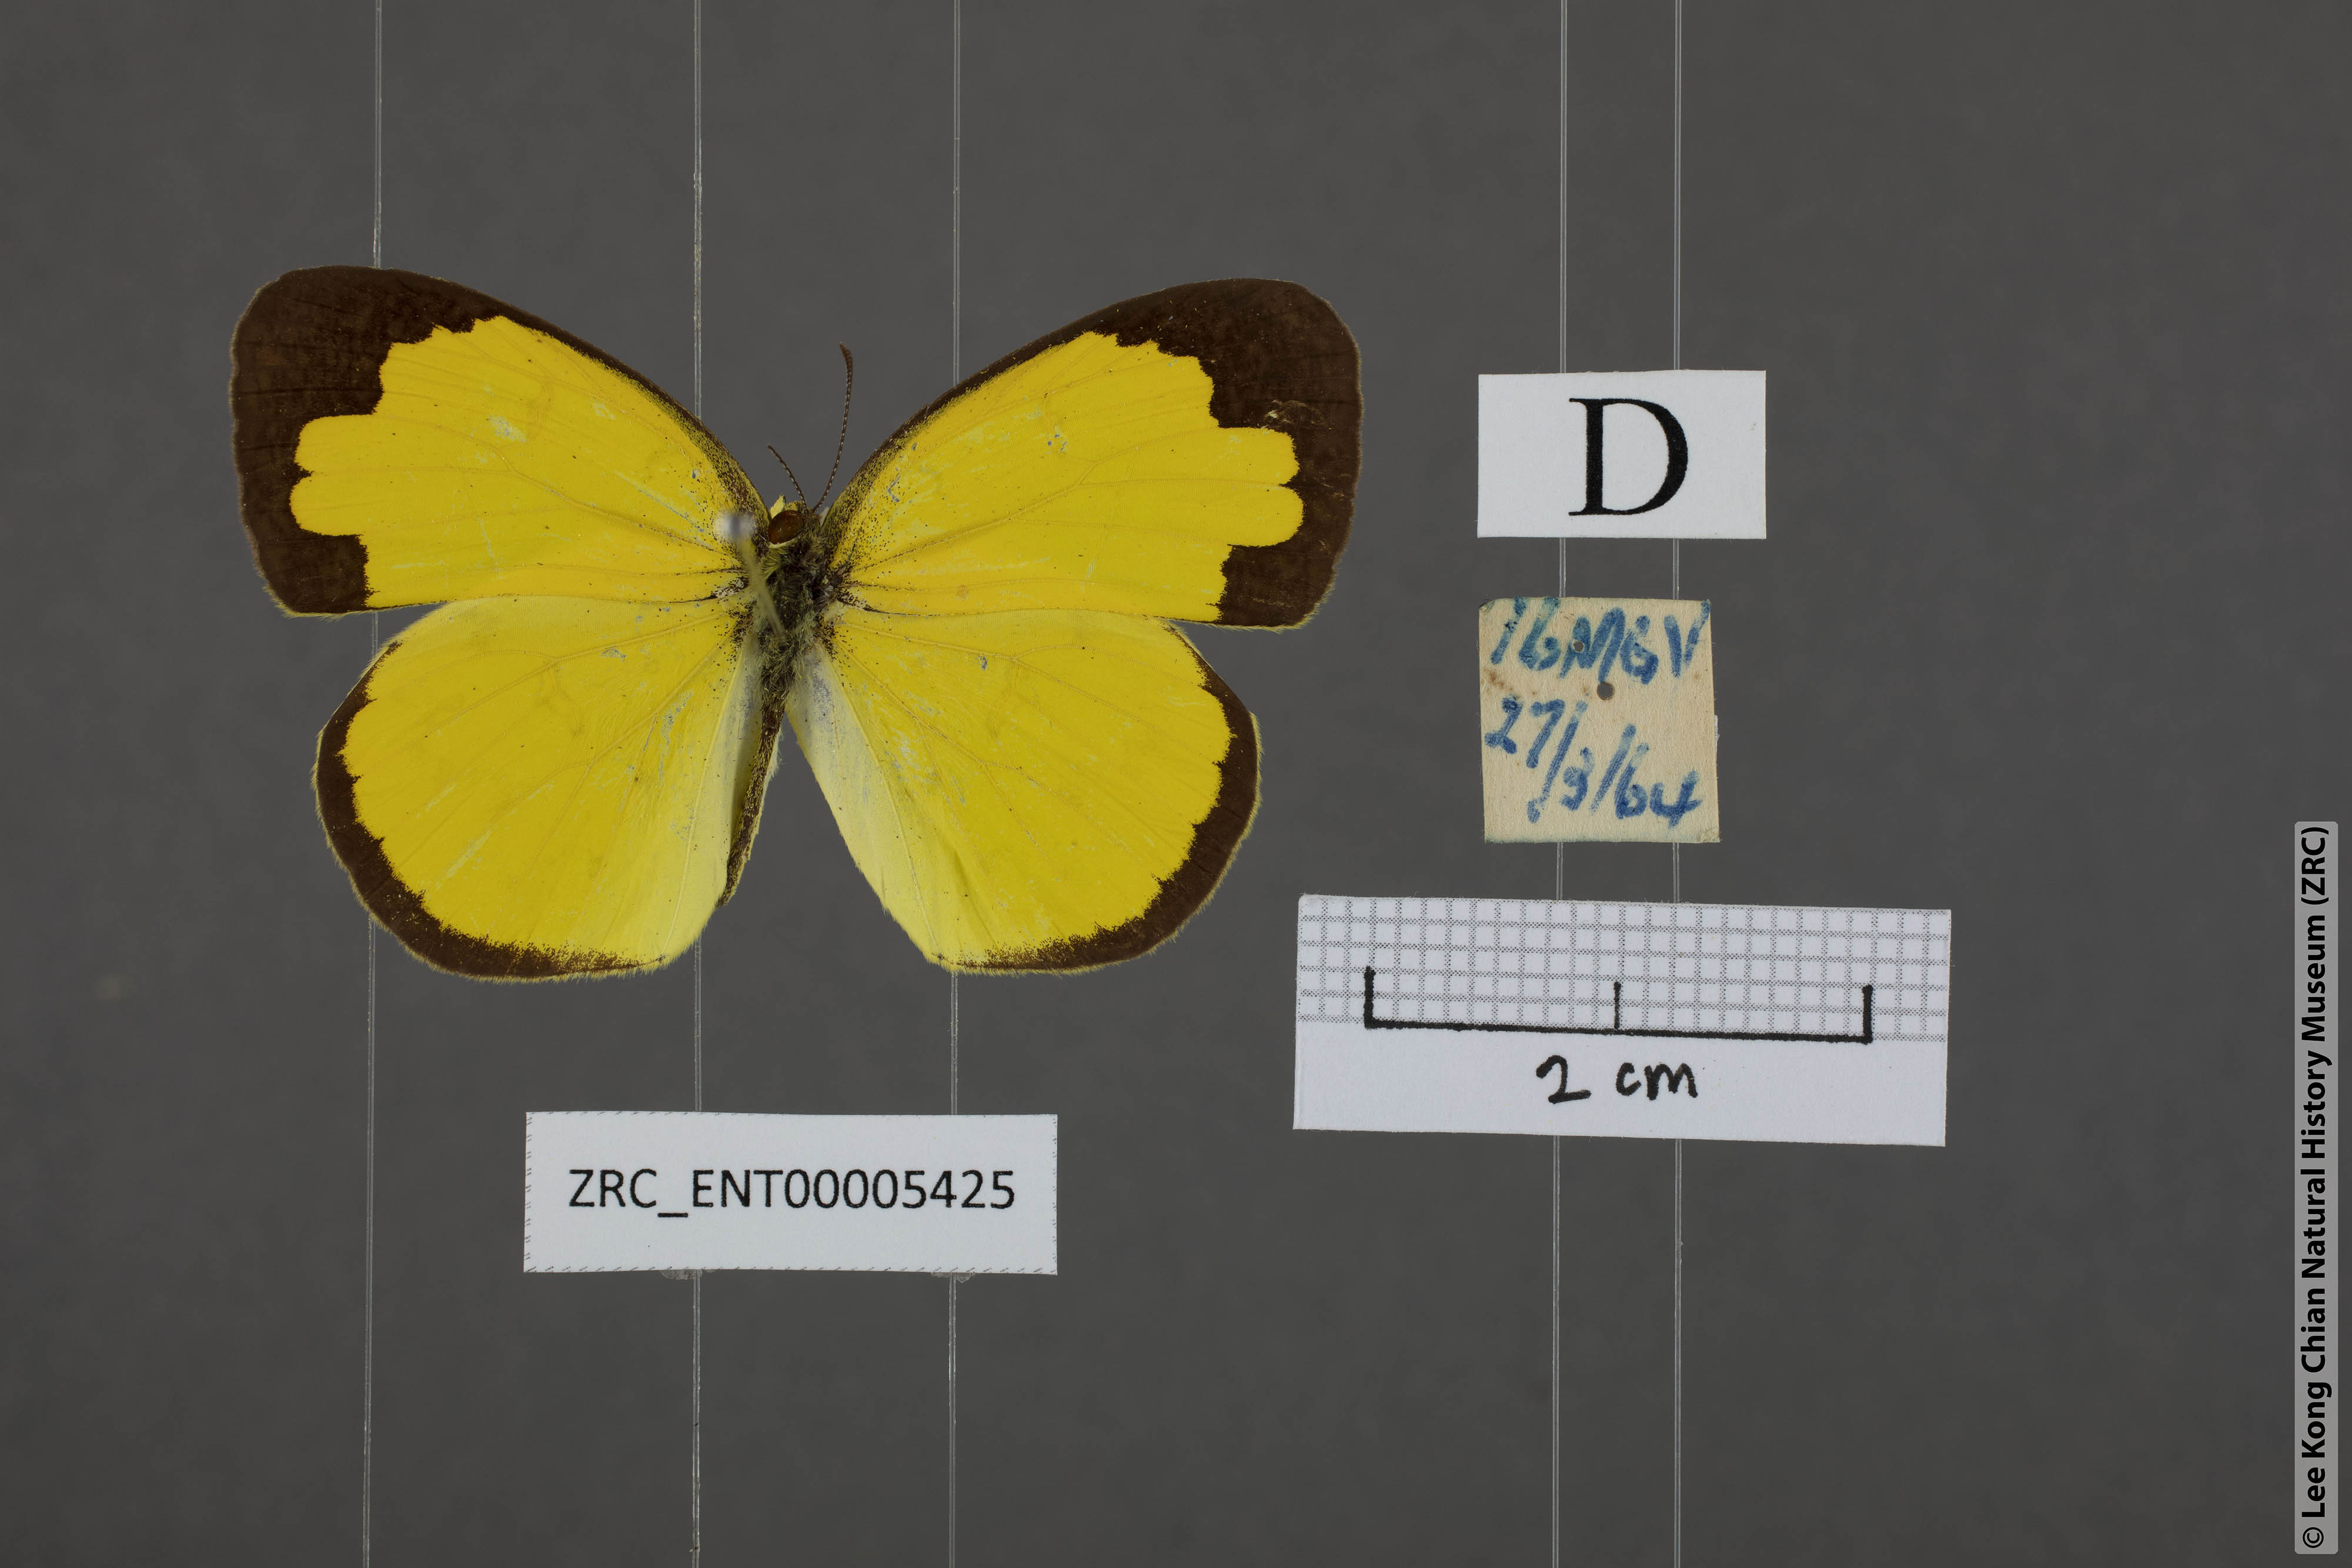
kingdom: Animalia
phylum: Arthropoda
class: Insecta
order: Lepidoptera
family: Pieridae
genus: Eurema
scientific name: Eurema blanda
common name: Three-spot grass yellow
